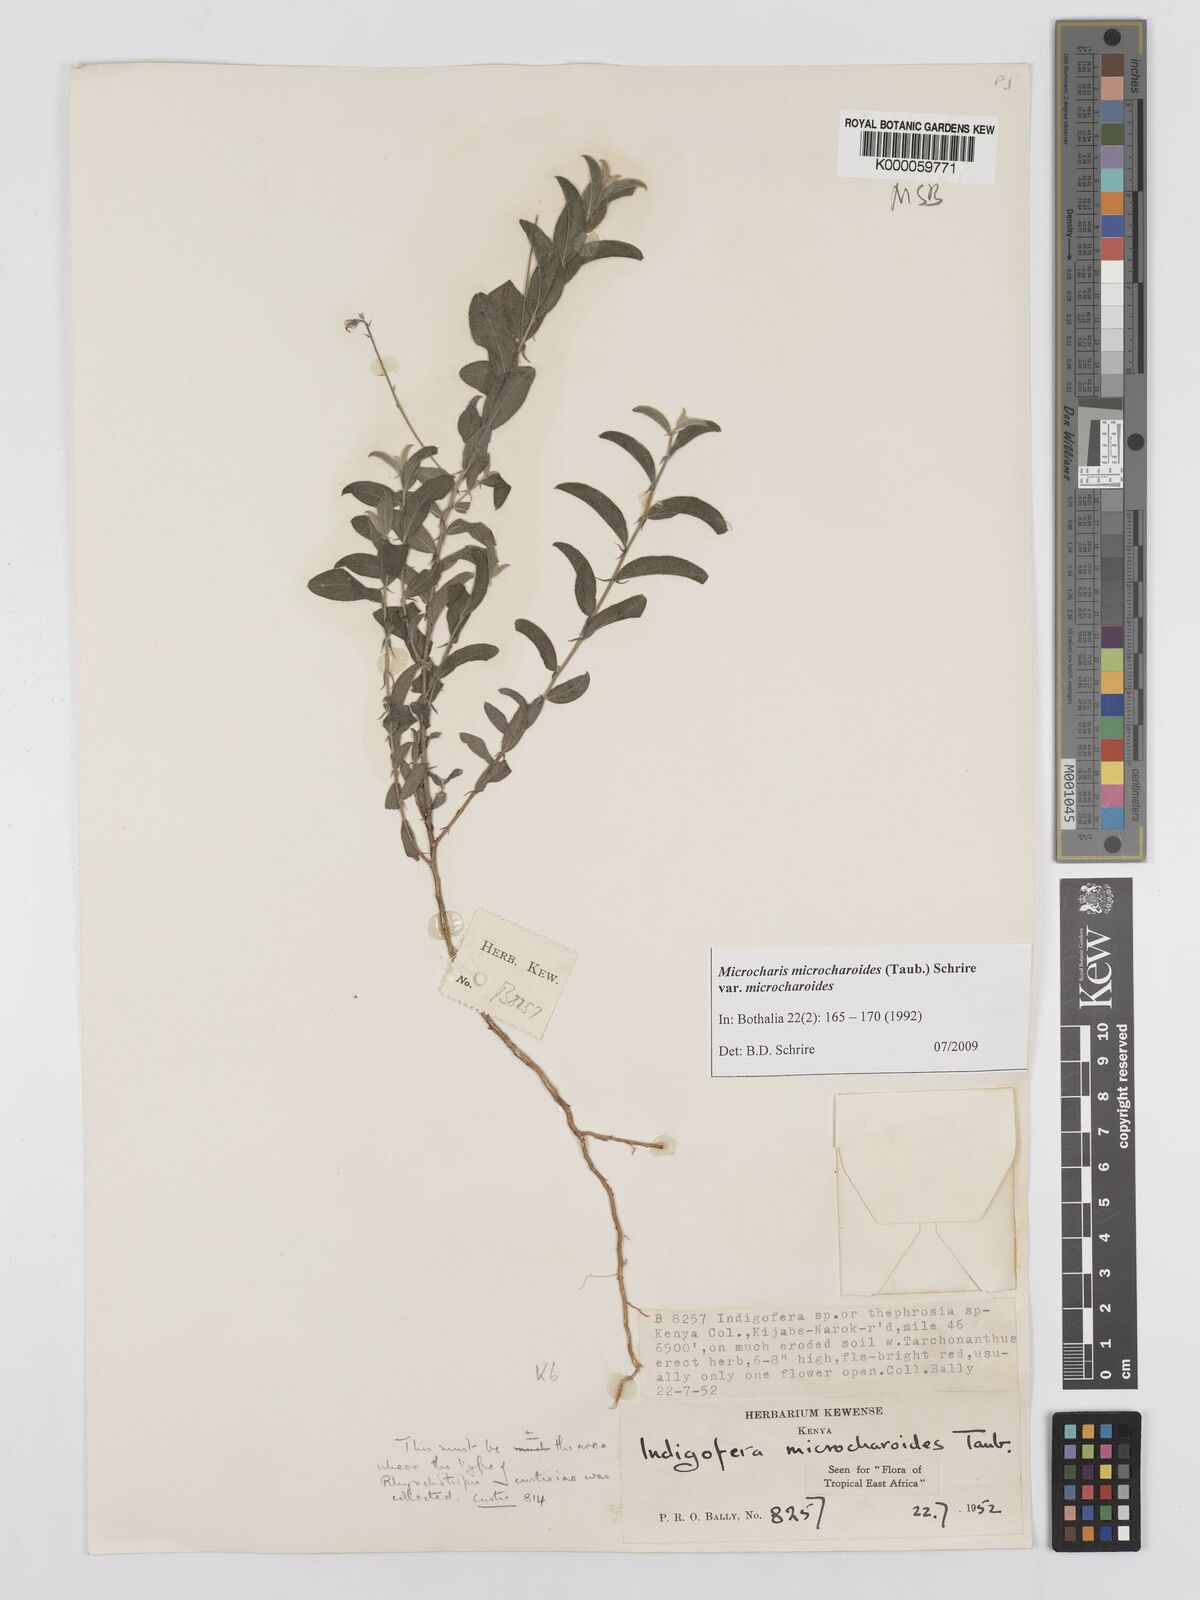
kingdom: Plantae
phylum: Tracheophyta
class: Magnoliopsida
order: Fabales
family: Fabaceae
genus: Microcharis
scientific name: Microcharis microcharoides
